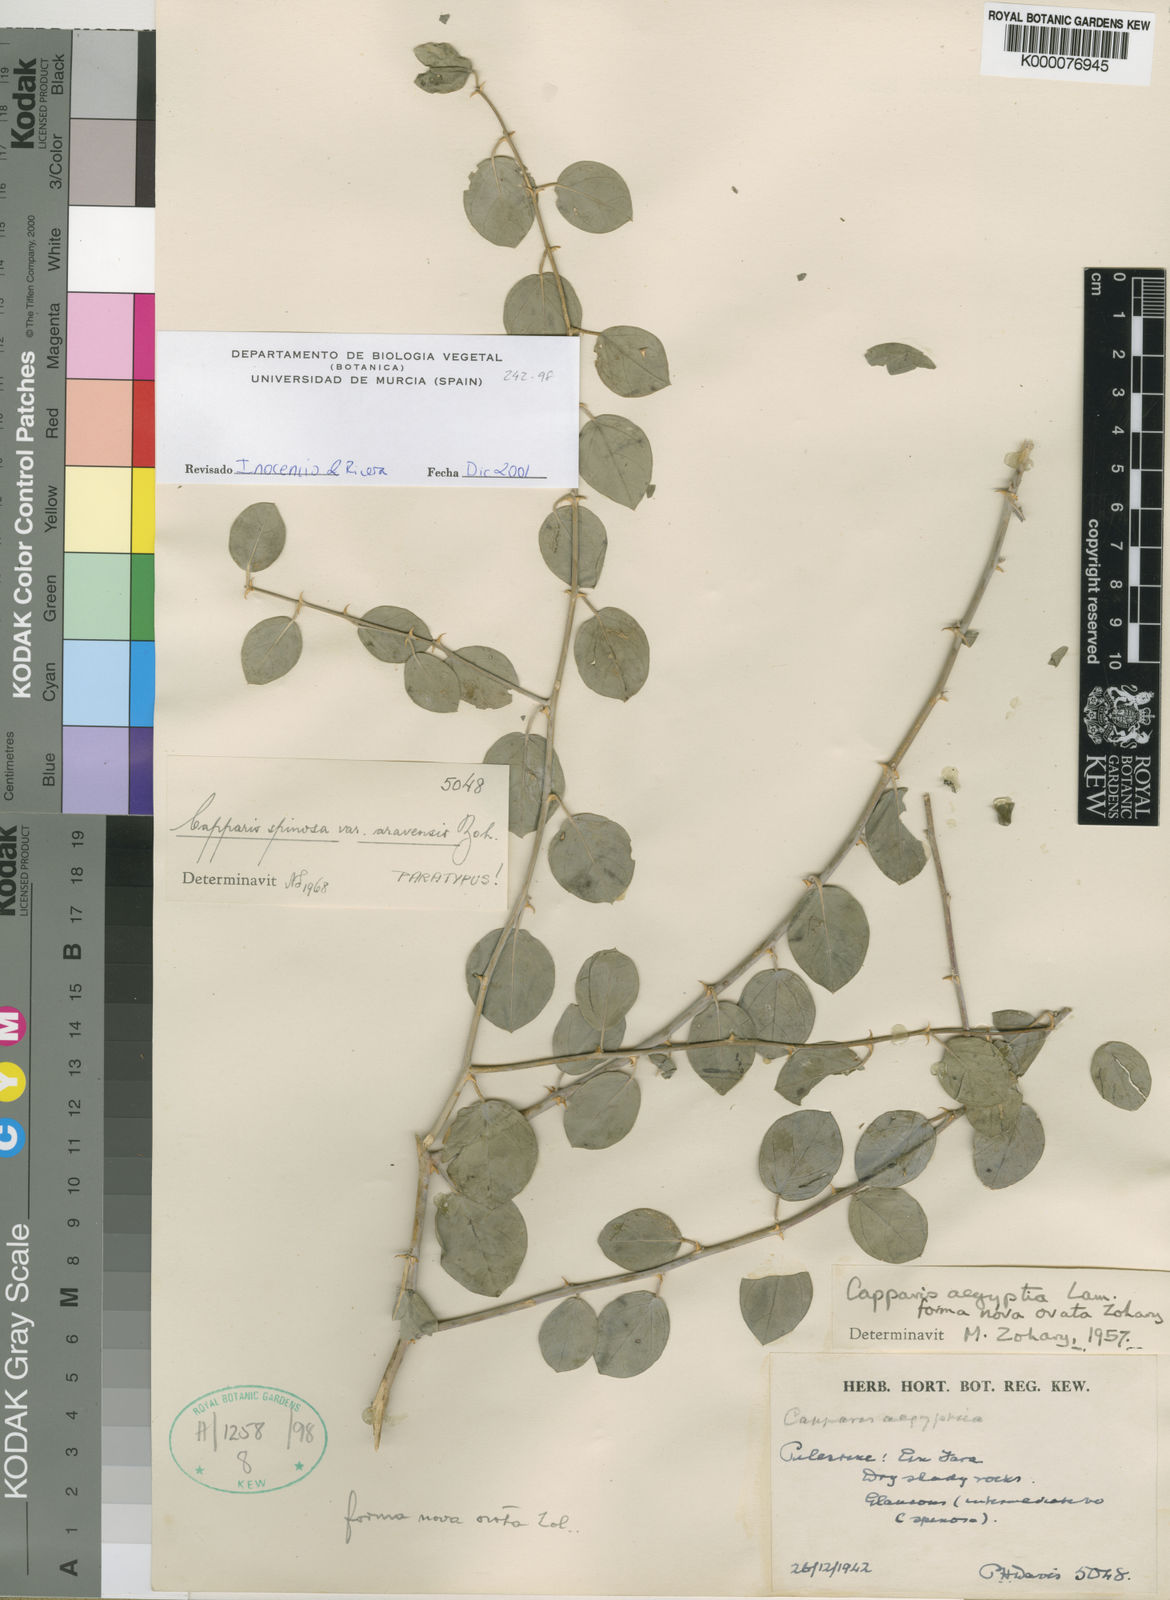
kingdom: Plantae
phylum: Tracheophyta
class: Magnoliopsida
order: Brassicales
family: Capparaceae
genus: Capparis
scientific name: Capparis spinosa
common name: Caper
